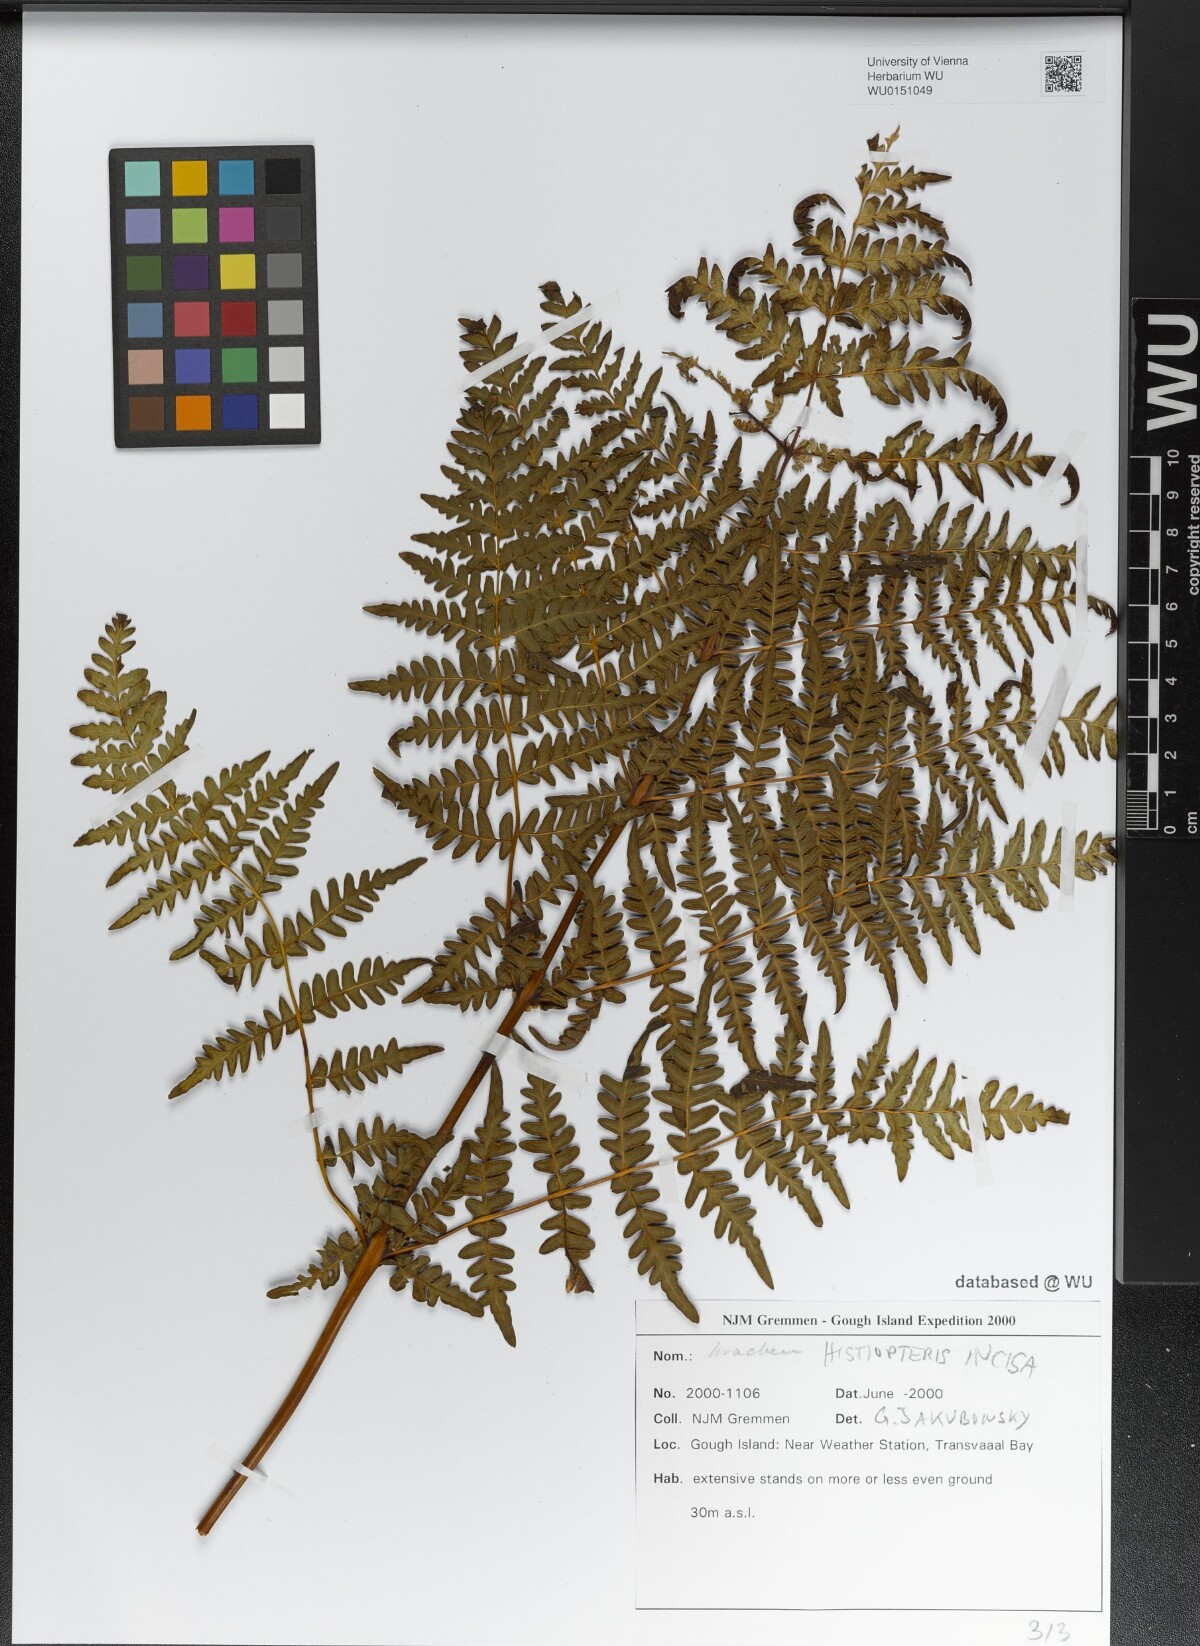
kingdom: Plantae
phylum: Tracheophyta
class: Polypodiopsida
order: Polypodiales
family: Dennstaedtiaceae
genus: Histiopteris
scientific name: Histiopteris incisa
